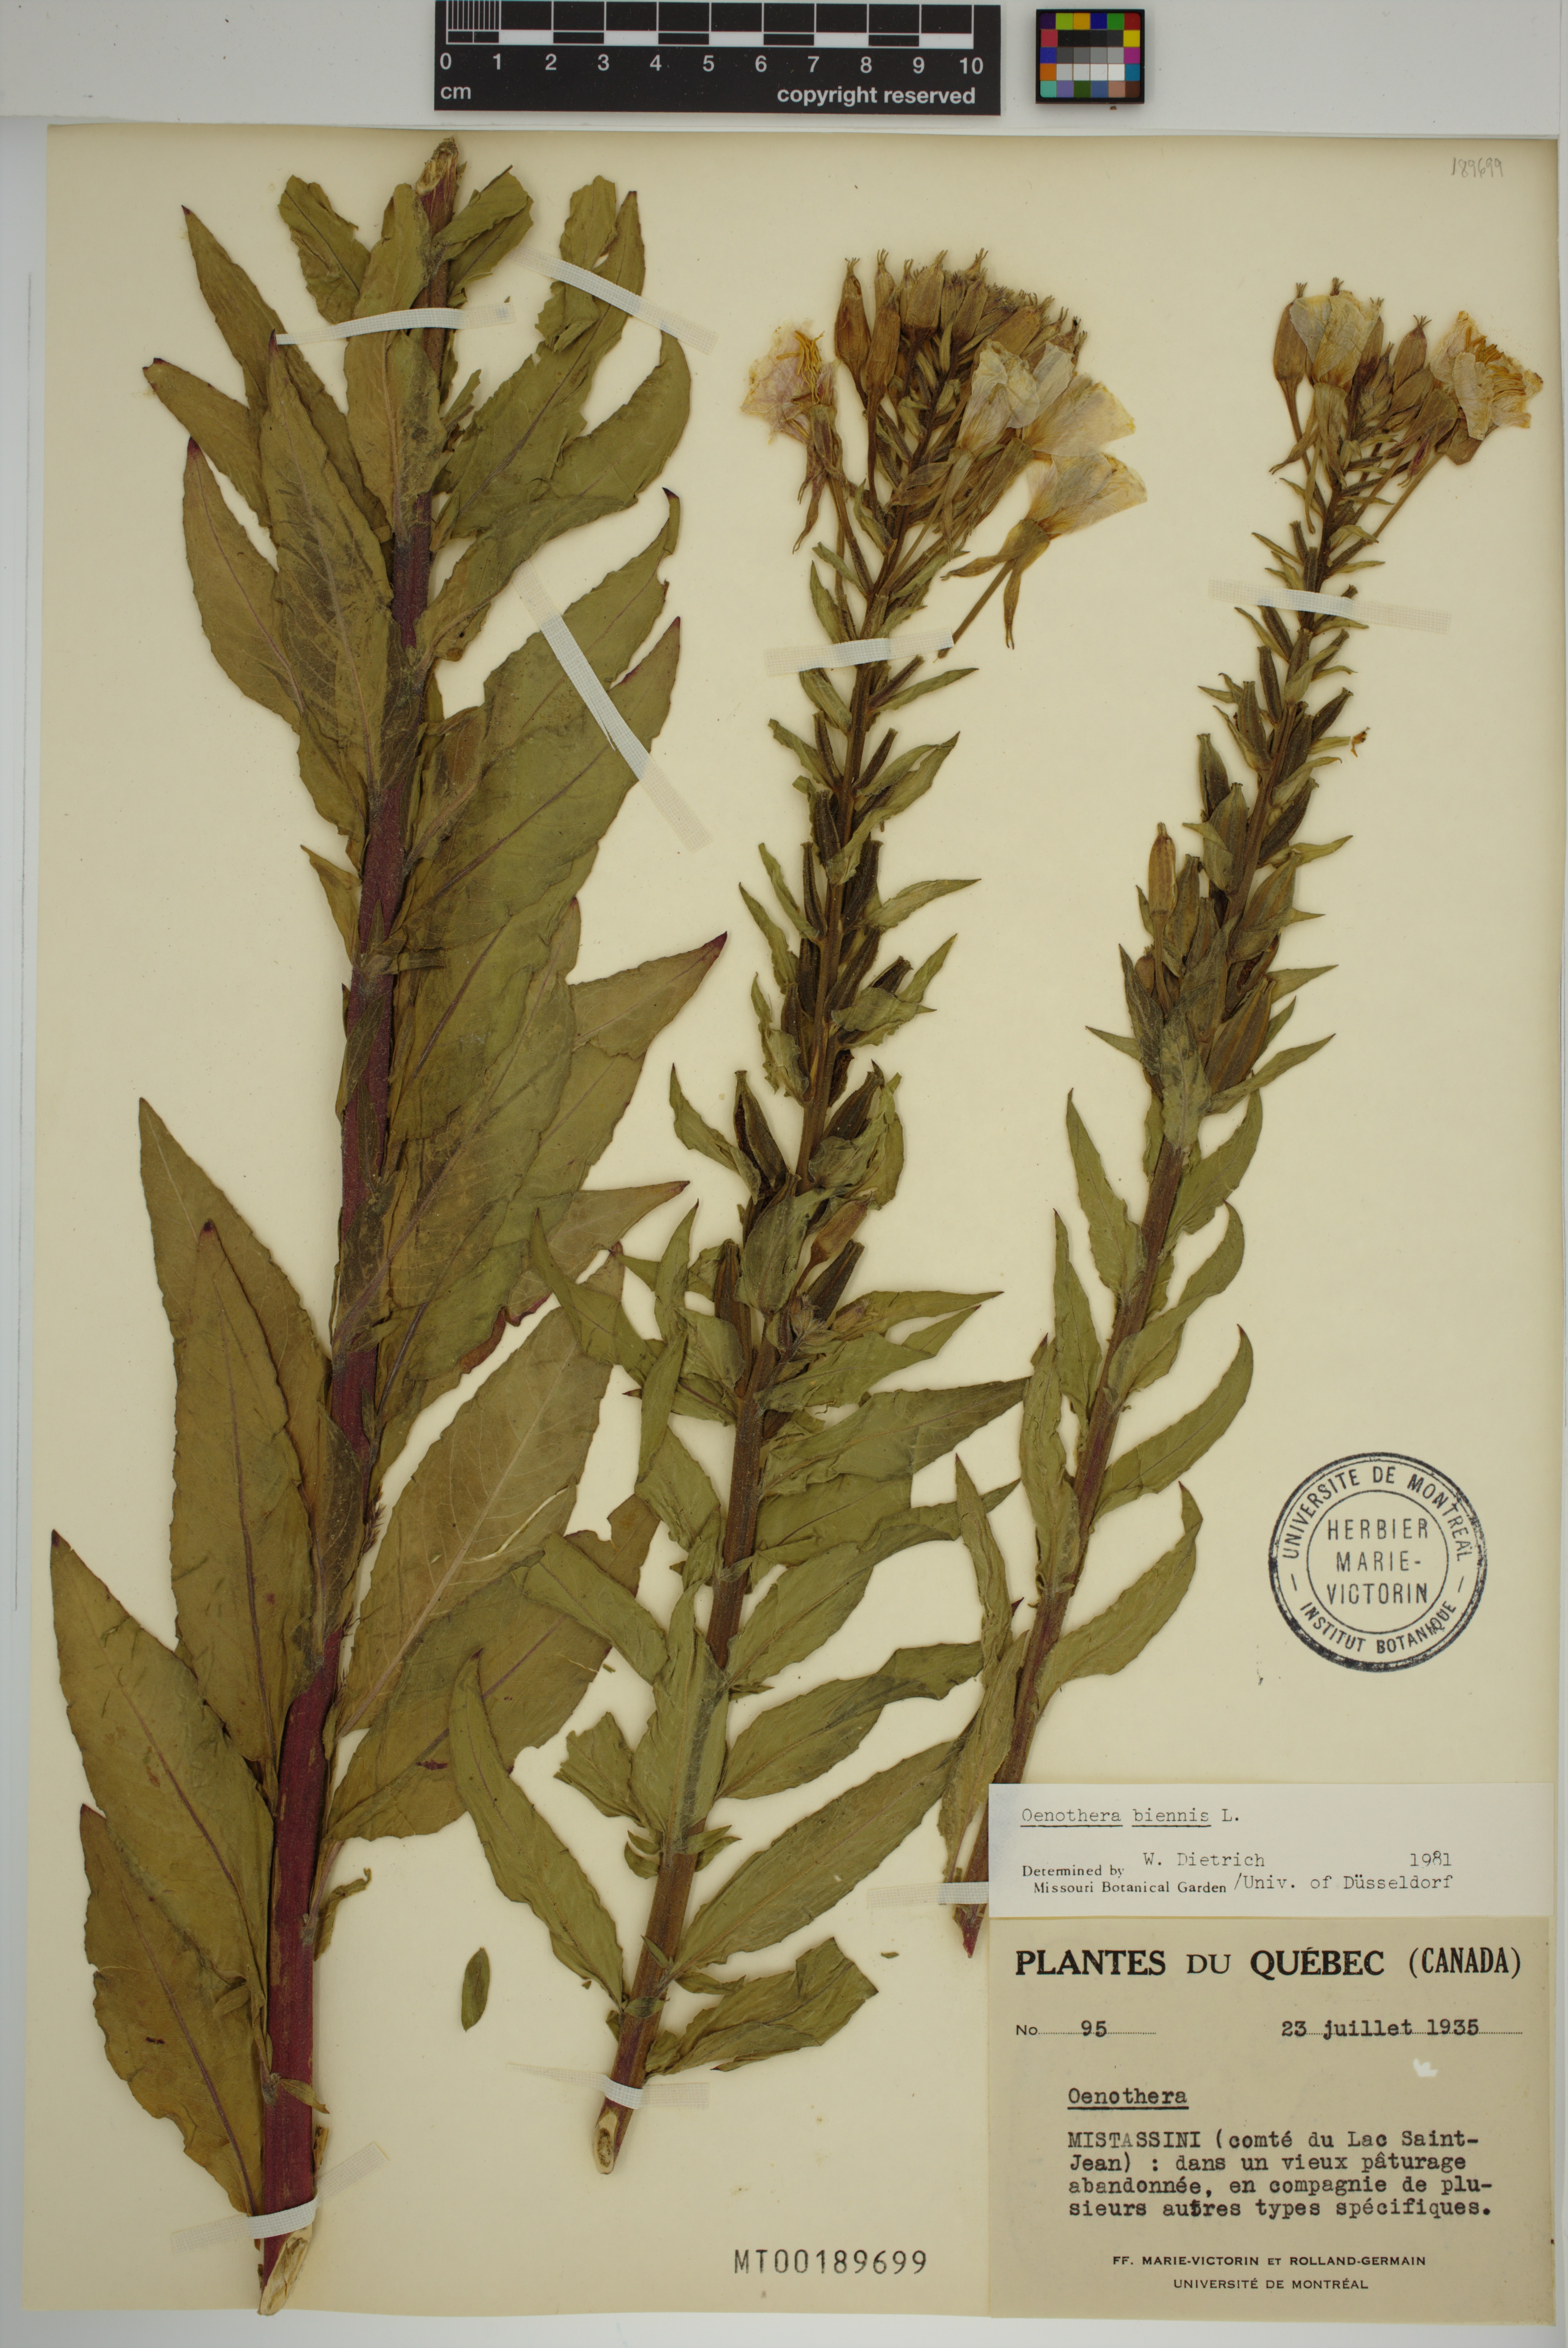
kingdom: Plantae
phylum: Tracheophyta
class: Magnoliopsida
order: Myrtales
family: Onagraceae
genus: Oenothera
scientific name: Oenothera biennis
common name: Common evening-primrose
